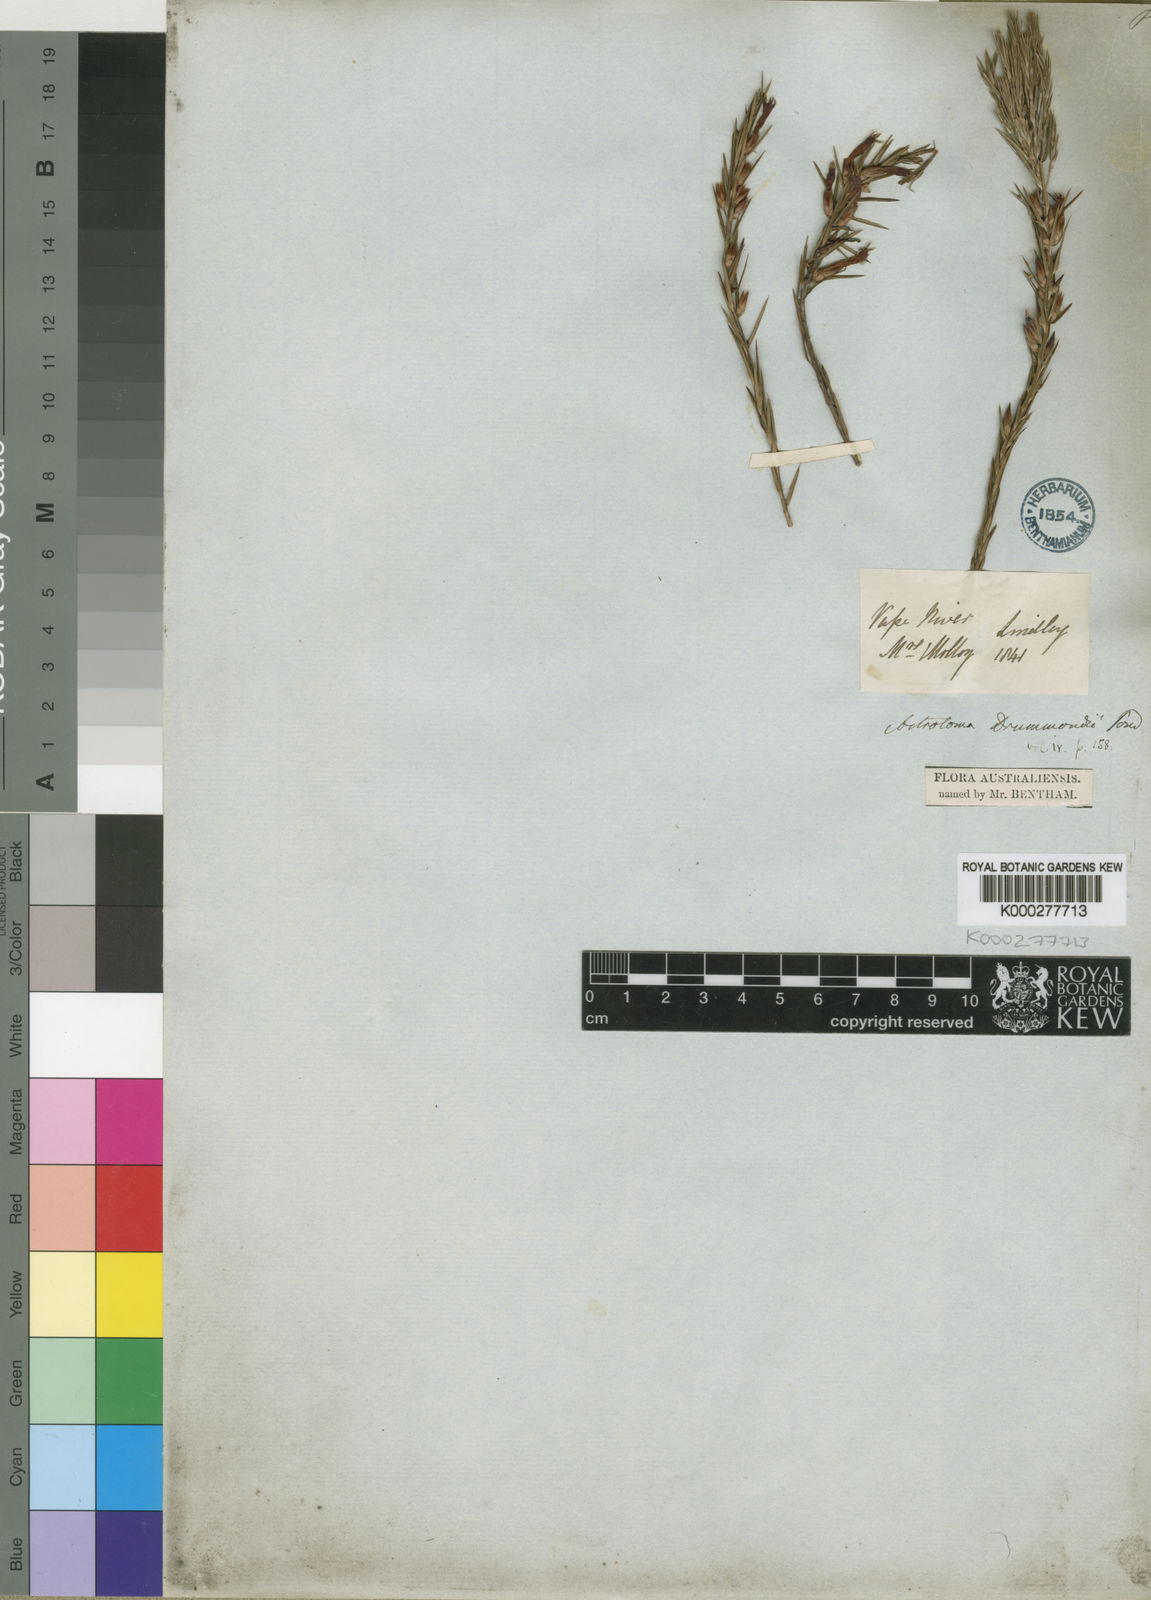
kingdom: Plantae
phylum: Tracheophyta
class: Magnoliopsida
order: Ericales
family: Ericaceae
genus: Styphelia
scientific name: Styphelia epacridis
